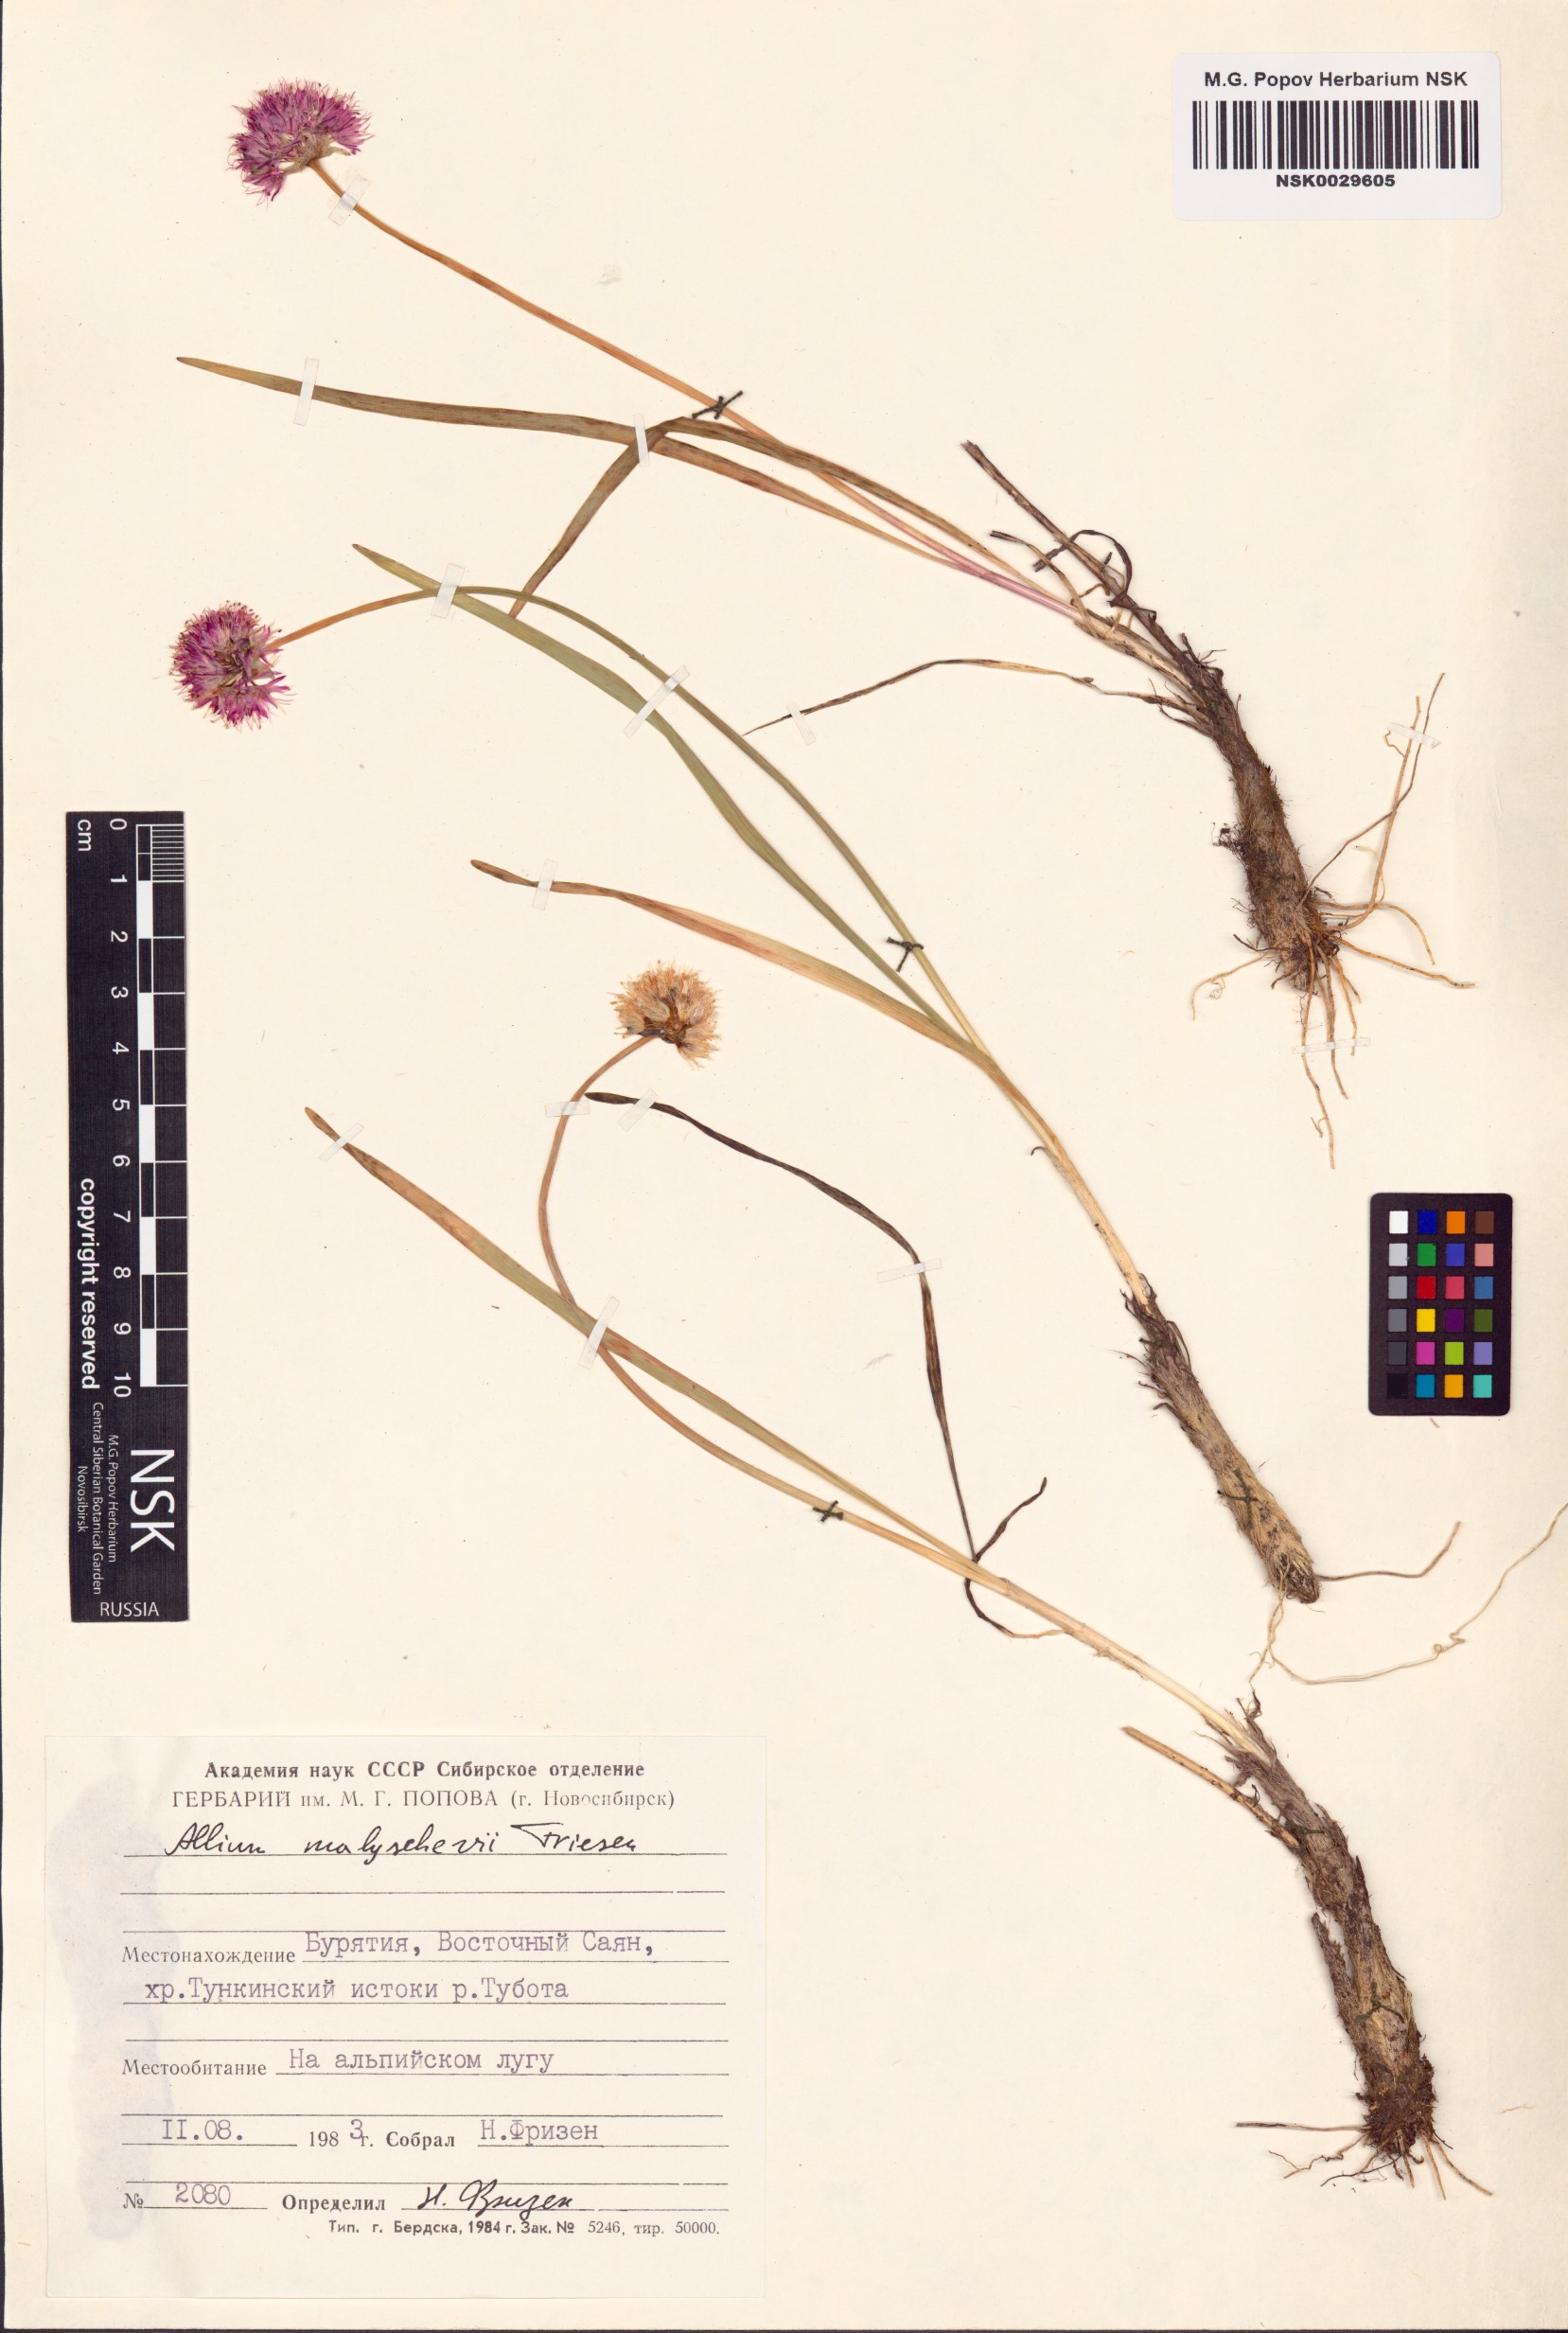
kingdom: Plantae
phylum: Tracheophyta
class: Liliopsida
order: Asparagales
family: Amaryllidaceae
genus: Allium
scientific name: Allium malyschevii
